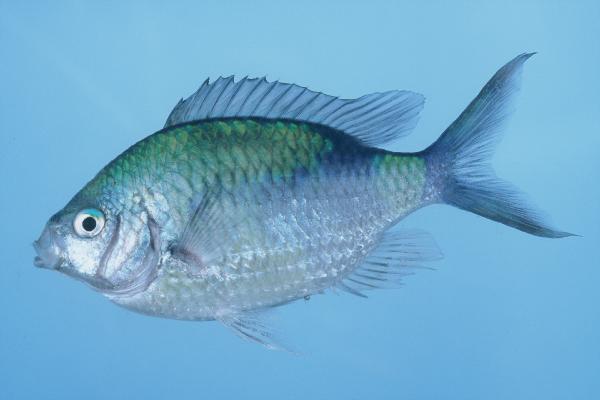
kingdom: Animalia
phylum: Chordata
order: Perciformes
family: Pomacentridae
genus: Chromis
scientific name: Chromis viridis
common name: Blue-green chromis
